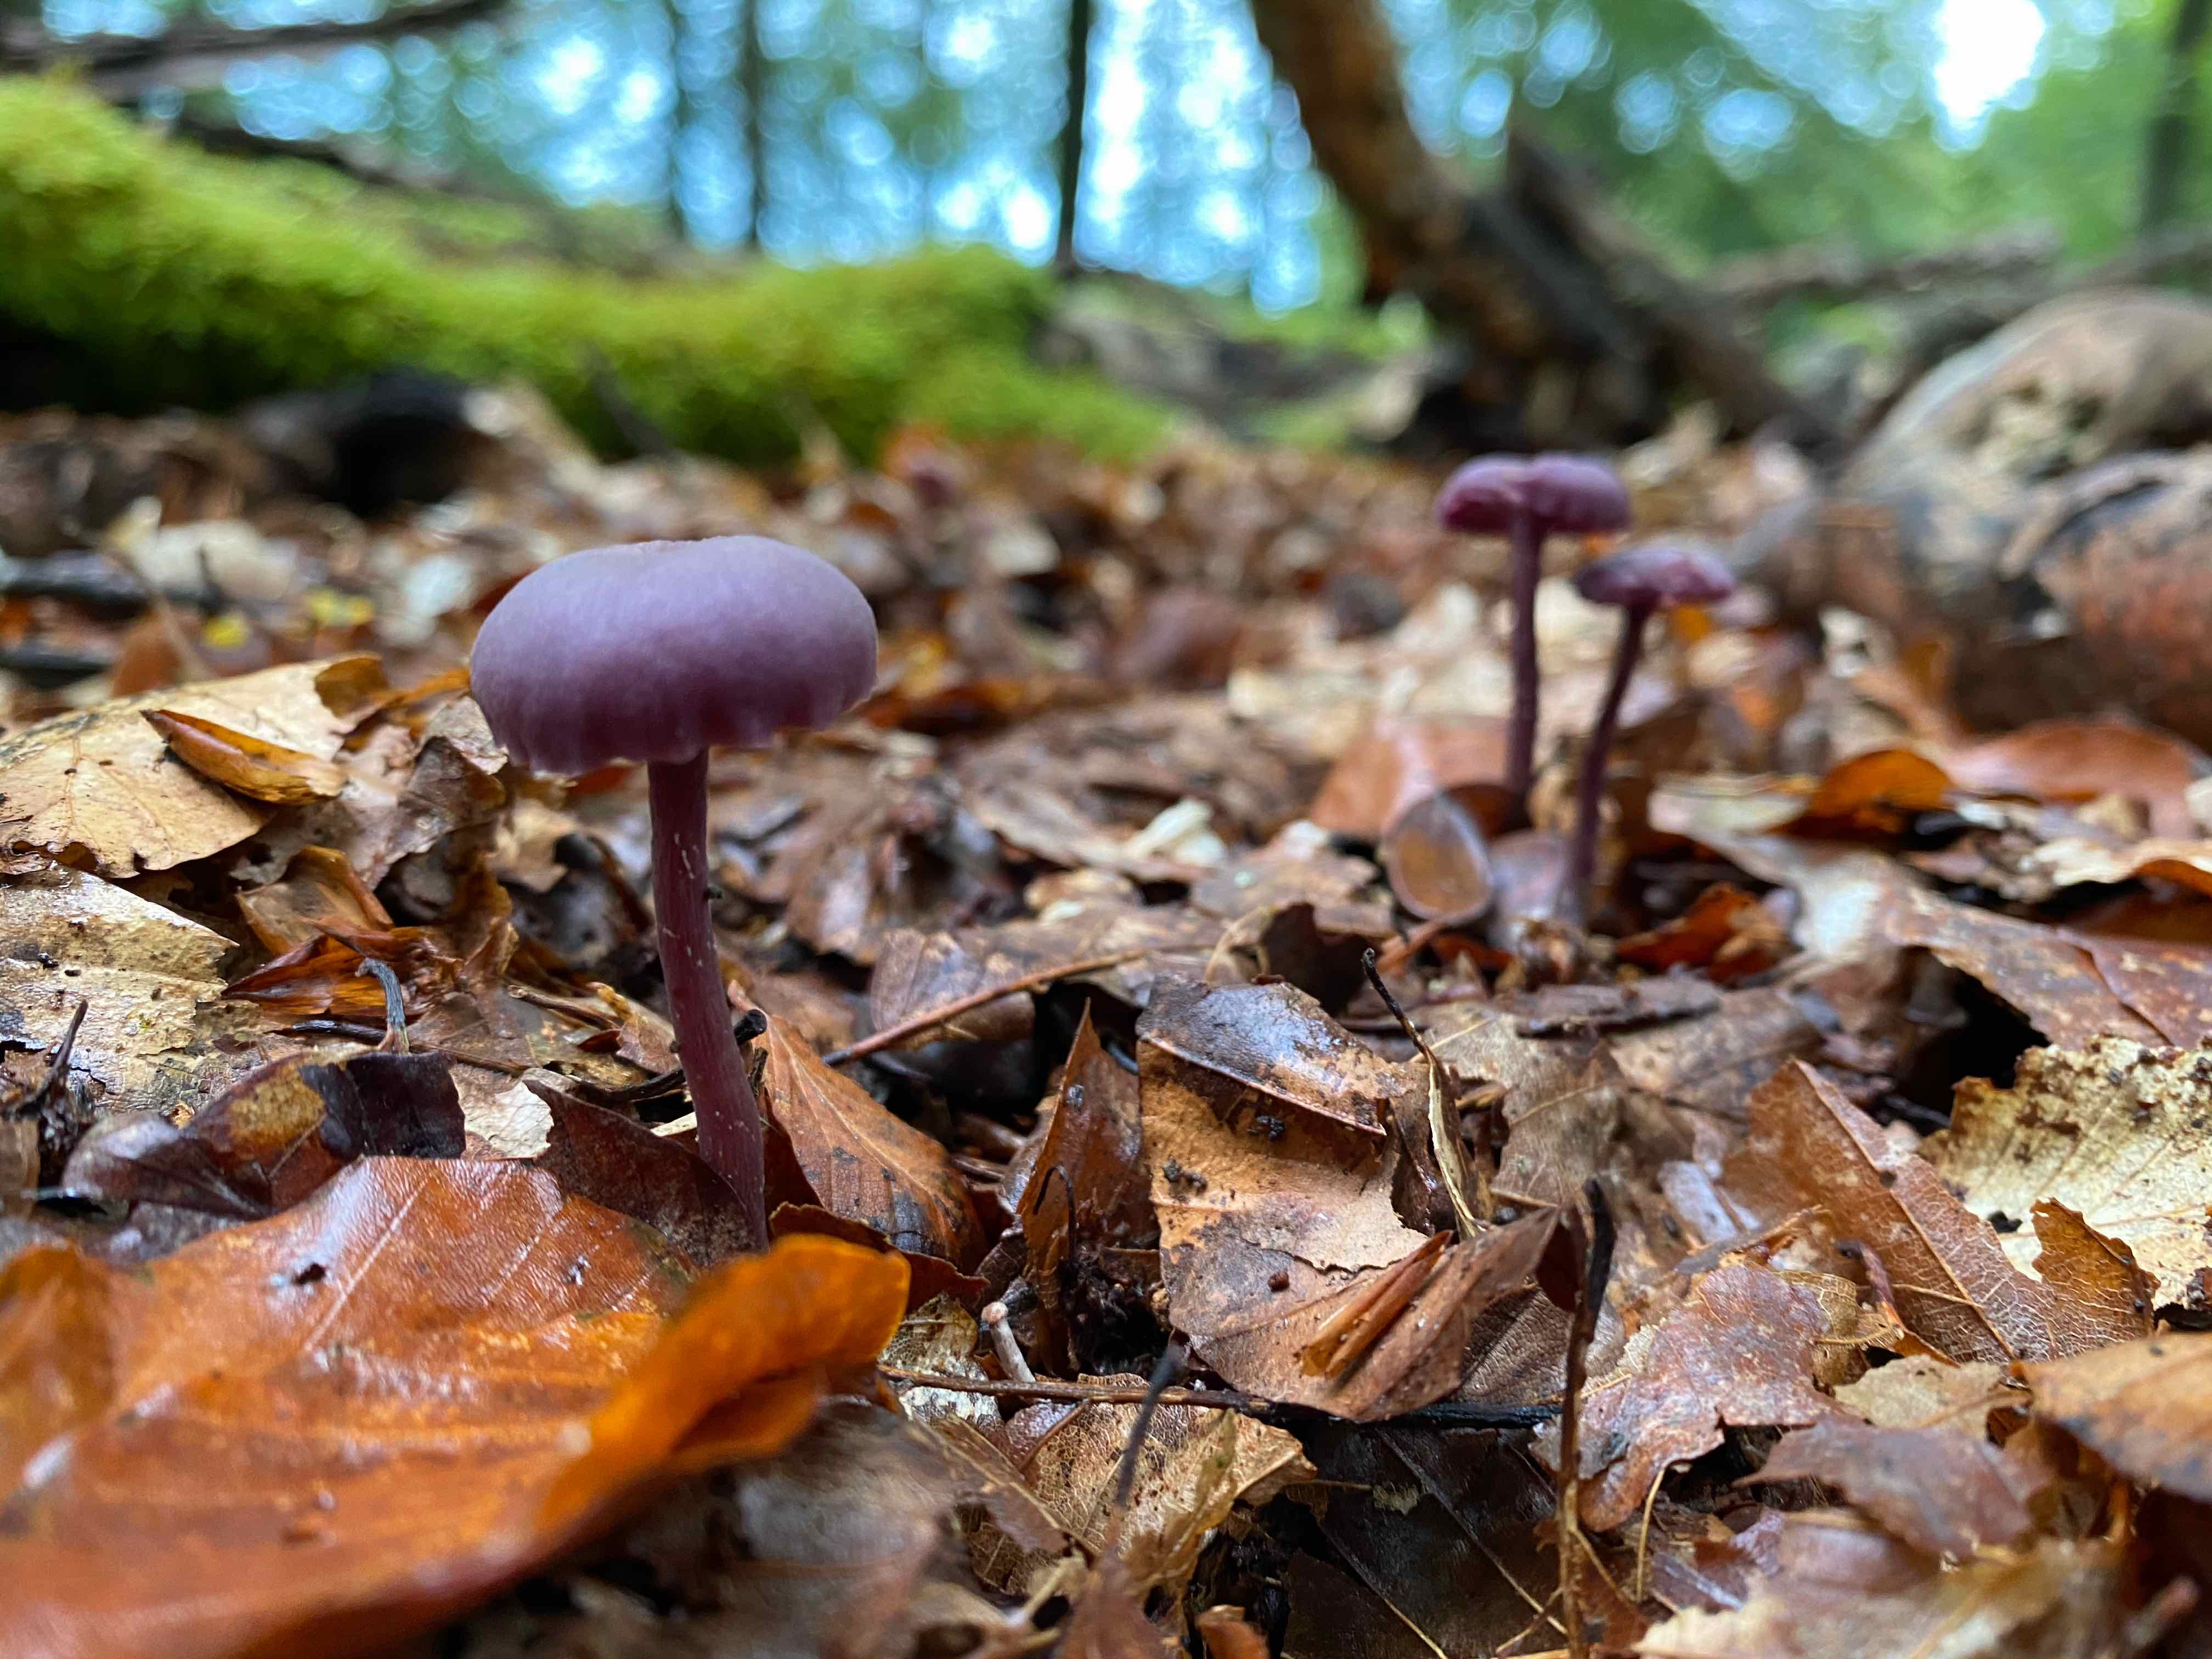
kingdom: Fungi
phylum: Basidiomycota
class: Agaricomycetes
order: Agaricales
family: Hydnangiaceae
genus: Laccaria
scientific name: Laccaria amethystina
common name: violet ametysthat
